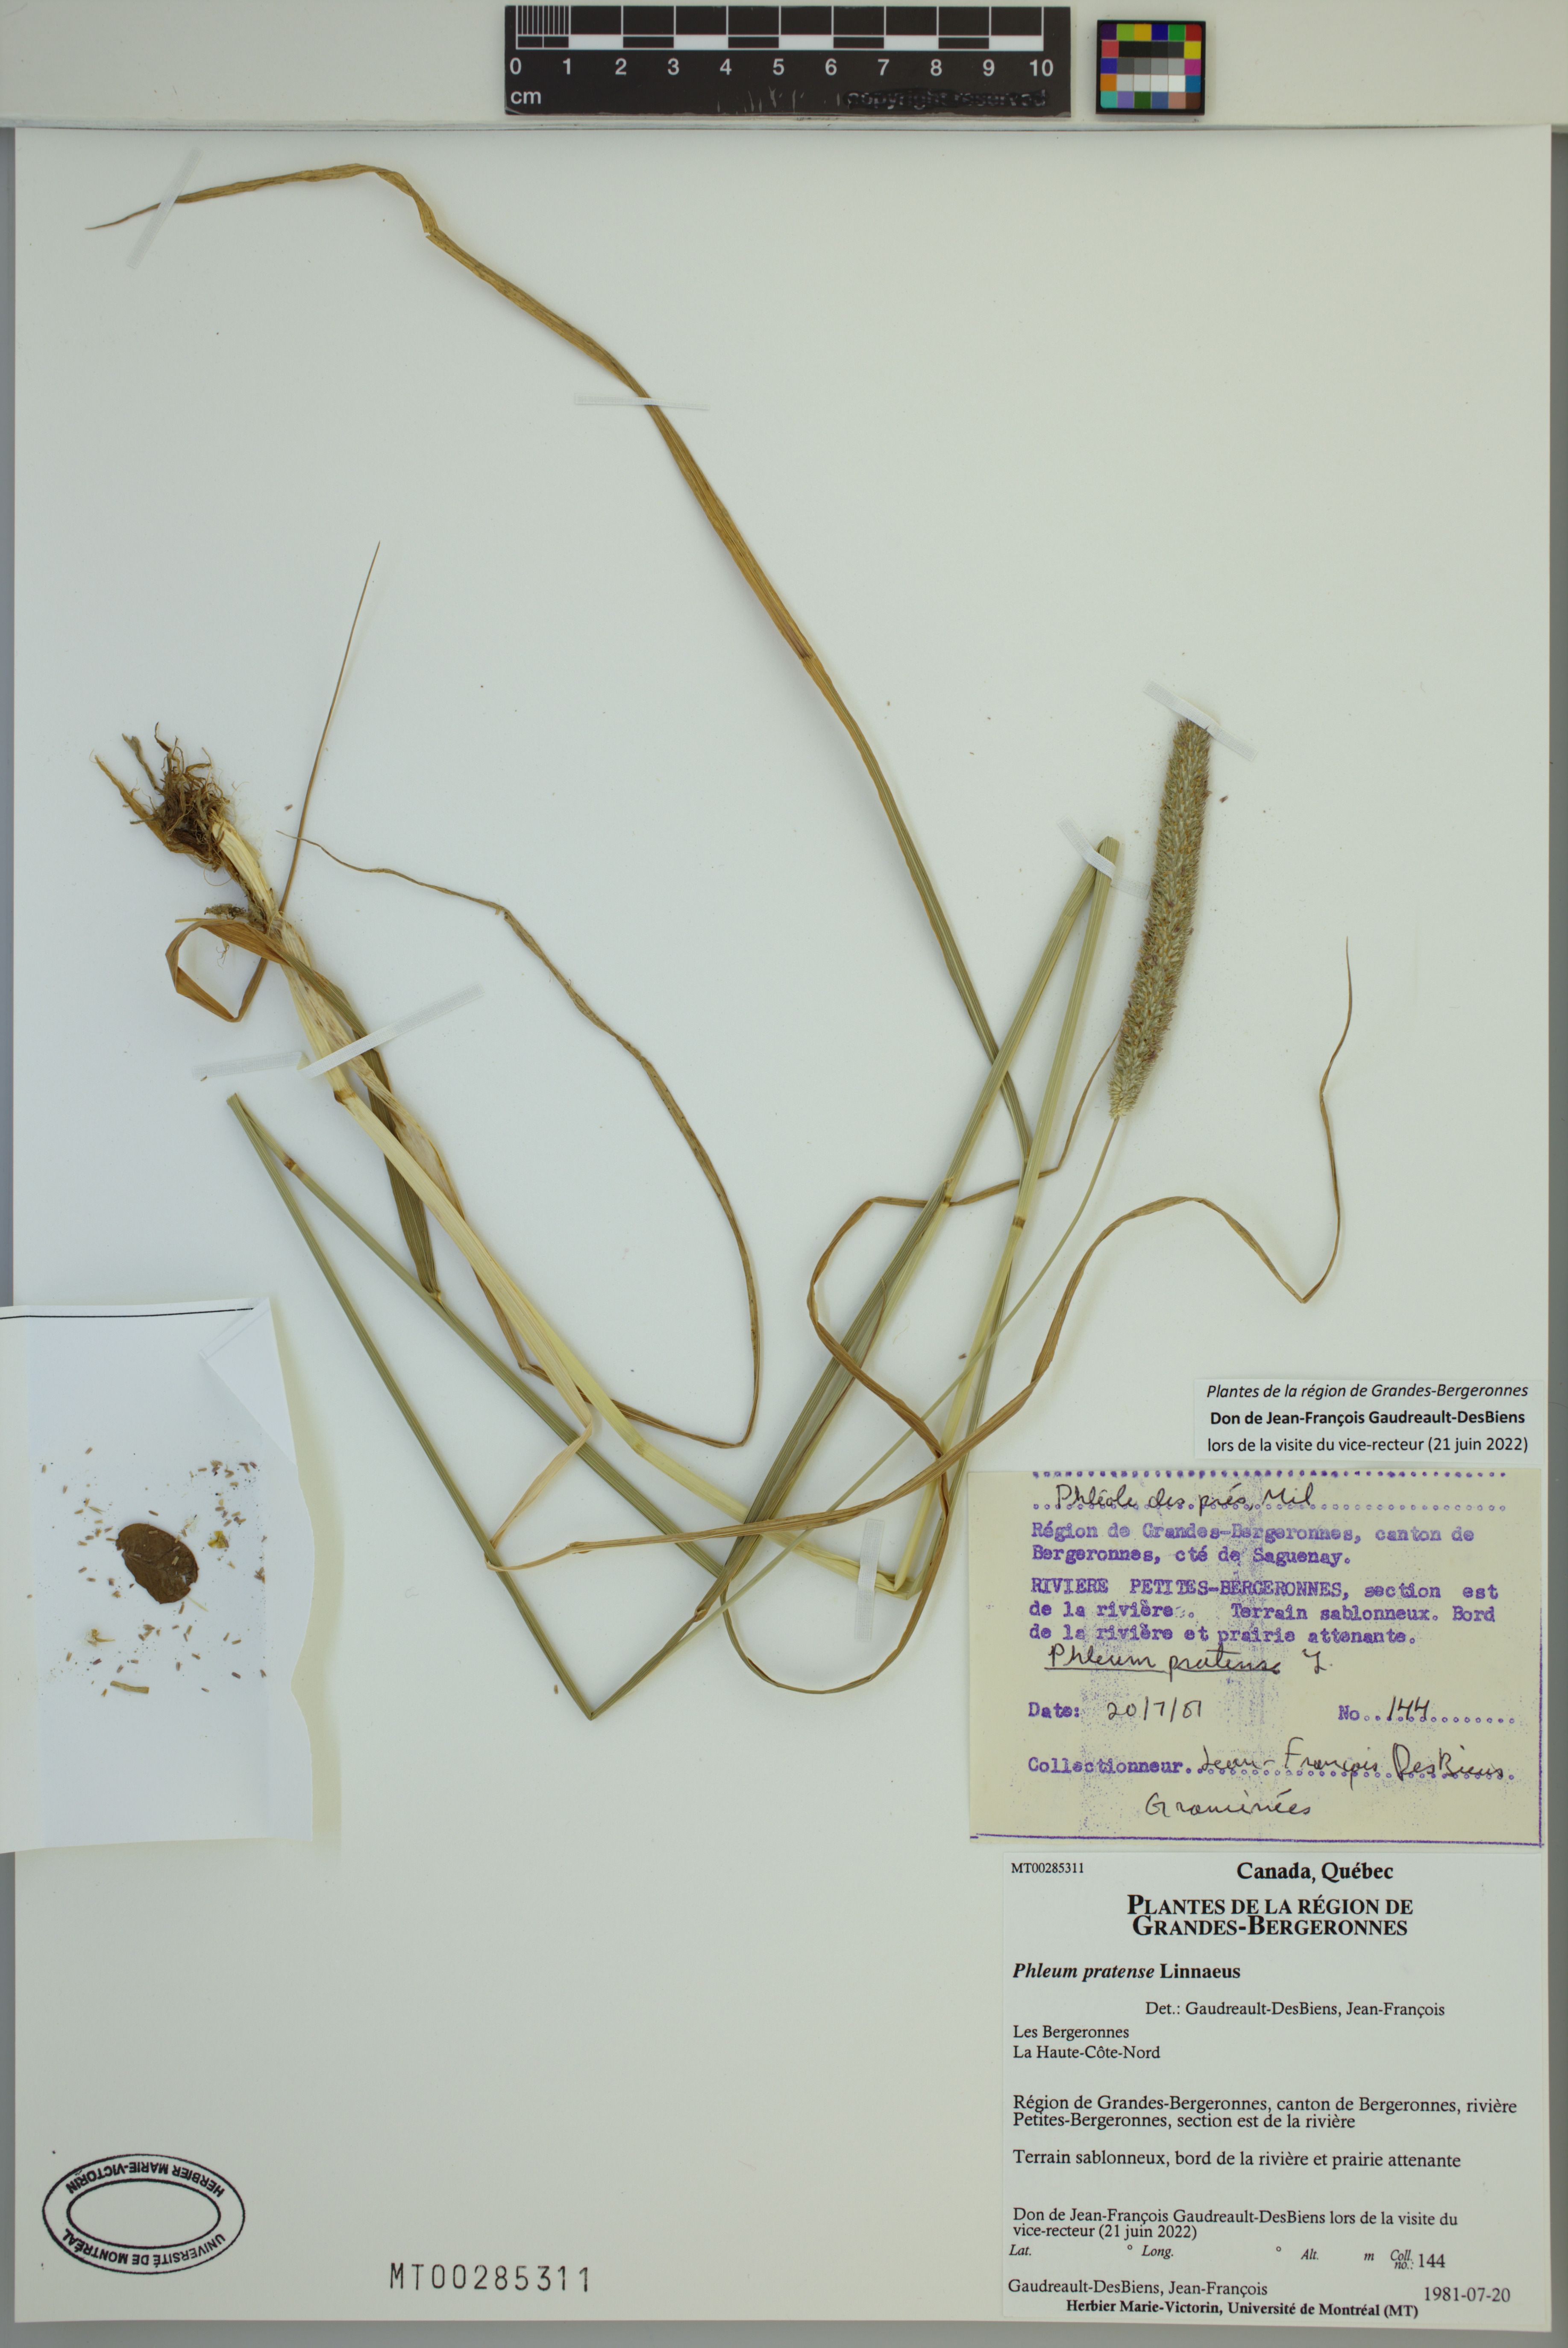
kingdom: Plantae
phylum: Tracheophyta
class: Liliopsida
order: Poales
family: Poaceae
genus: Phleum
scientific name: Phleum pratense
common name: Timothy grass
